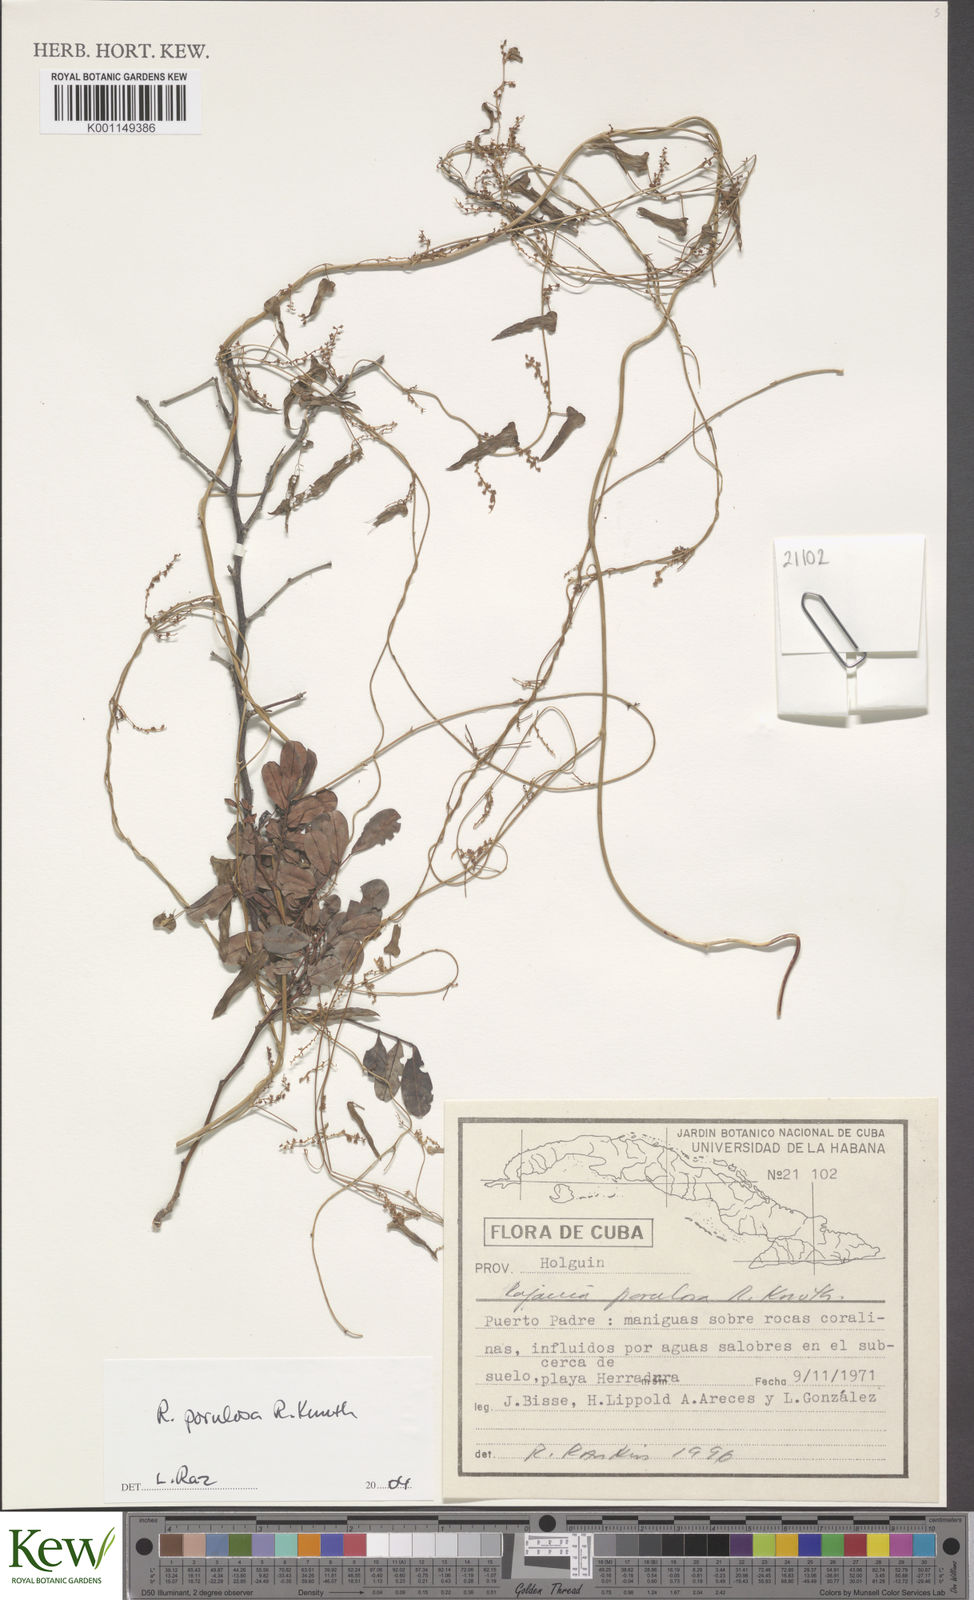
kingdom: Plantae
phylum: Tracheophyta
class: Liliopsida
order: Dioscoreales
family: Dioscoreaceae
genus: Dioscorea
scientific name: Dioscorea
